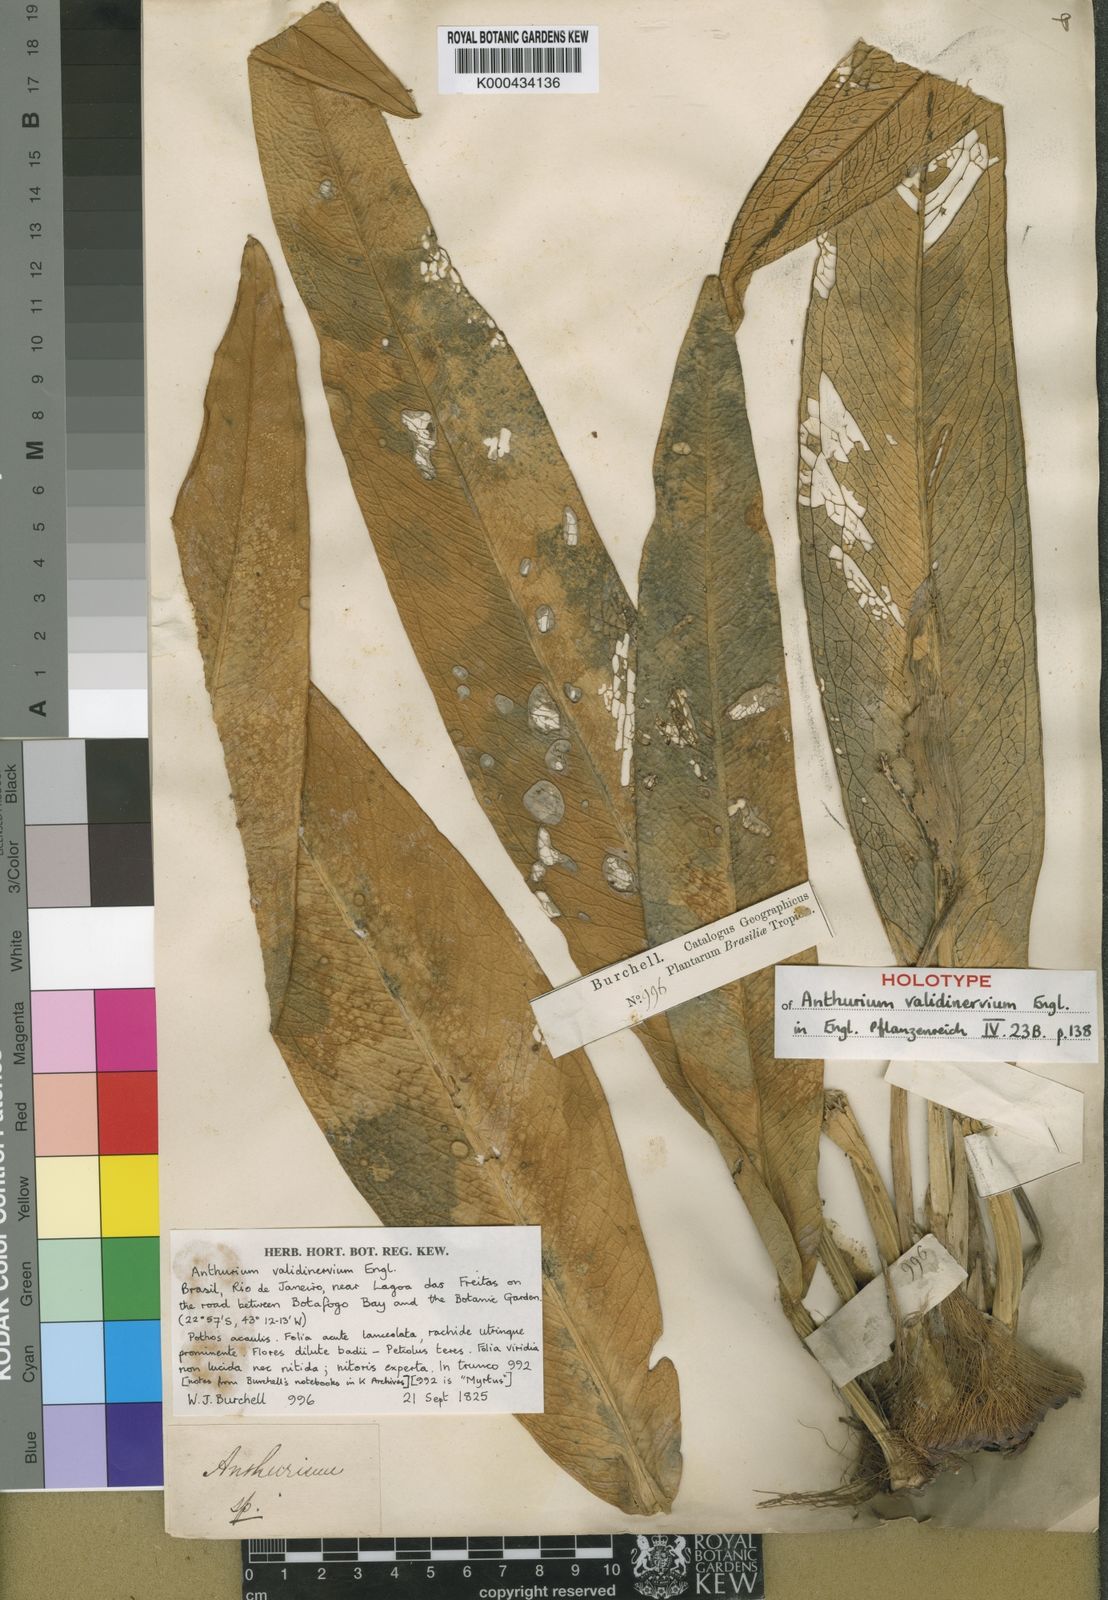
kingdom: Plantae
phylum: Tracheophyta
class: Liliopsida
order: Alismatales
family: Araceae
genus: Anthurium
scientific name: Anthurium validinervium
